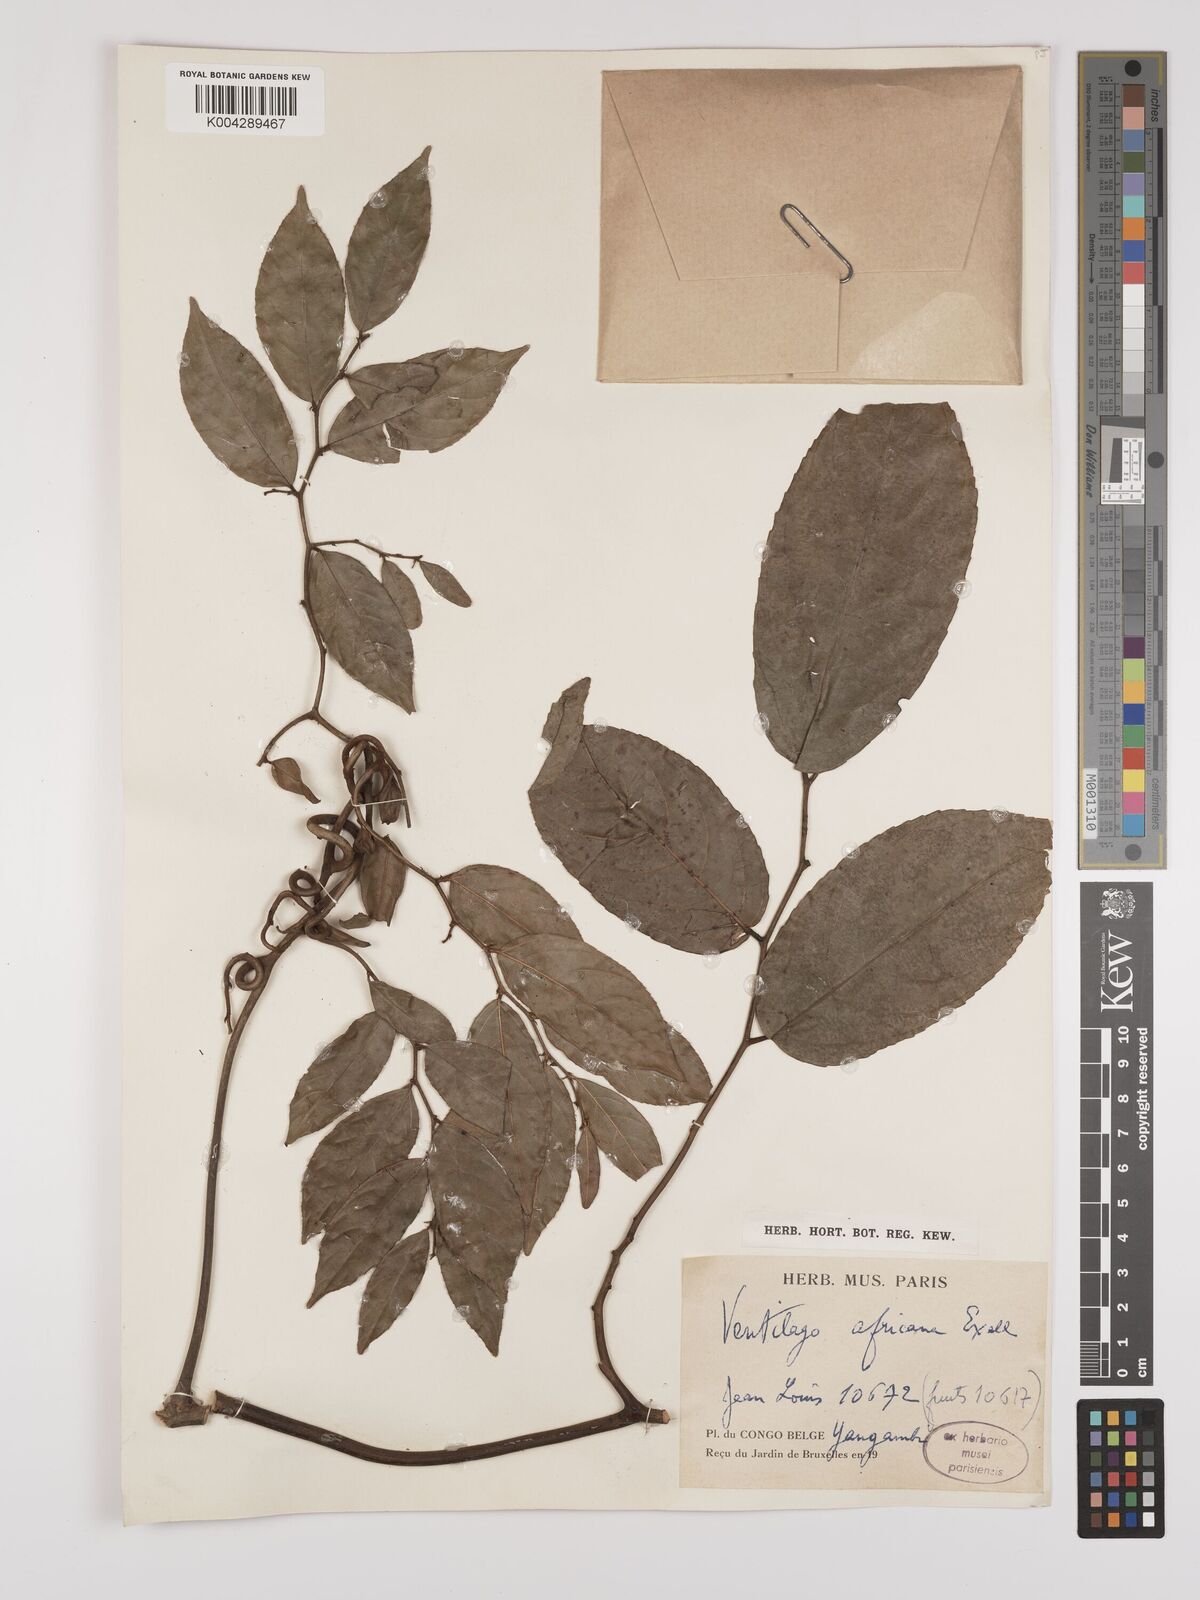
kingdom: Plantae
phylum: Tracheophyta
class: Magnoliopsida
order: Rosales
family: Rhamnaceae
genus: Ventilago
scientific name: Ventilago africana
